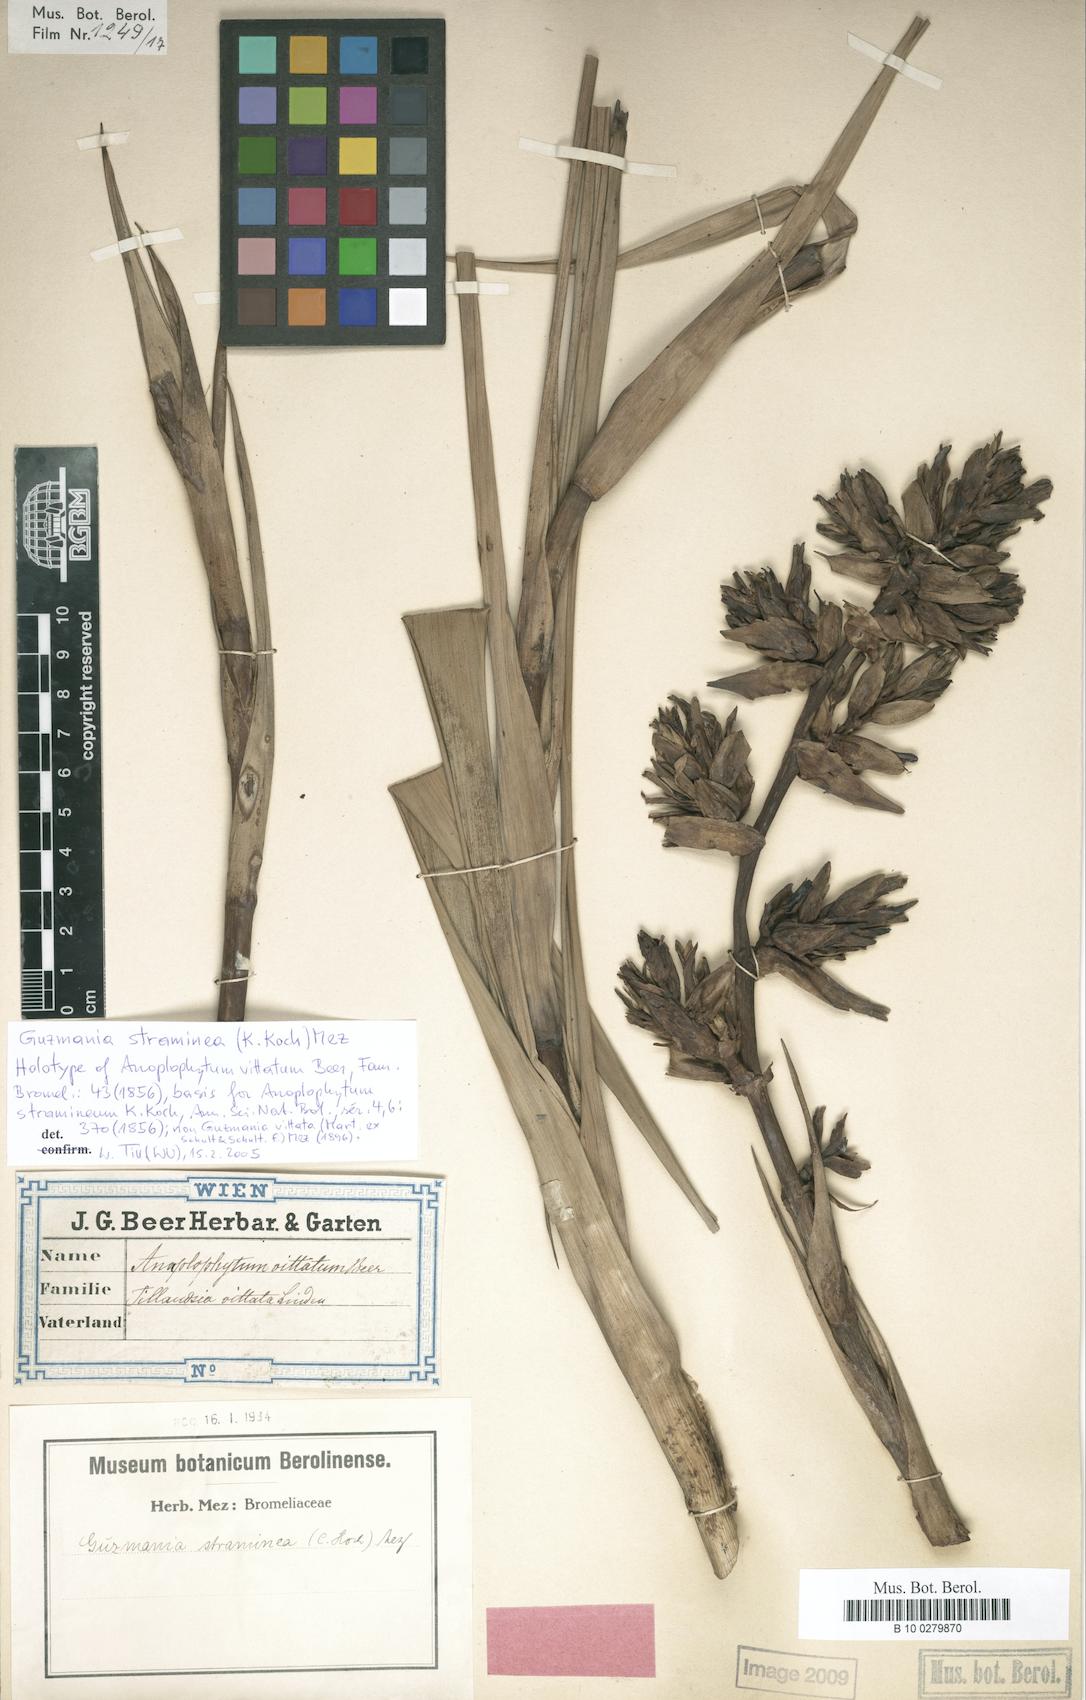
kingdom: Plantae
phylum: Tracheophyta
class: Liliopsida
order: Poales
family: Bromeliaceae
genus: Guzmania
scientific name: Guzmania straminea
